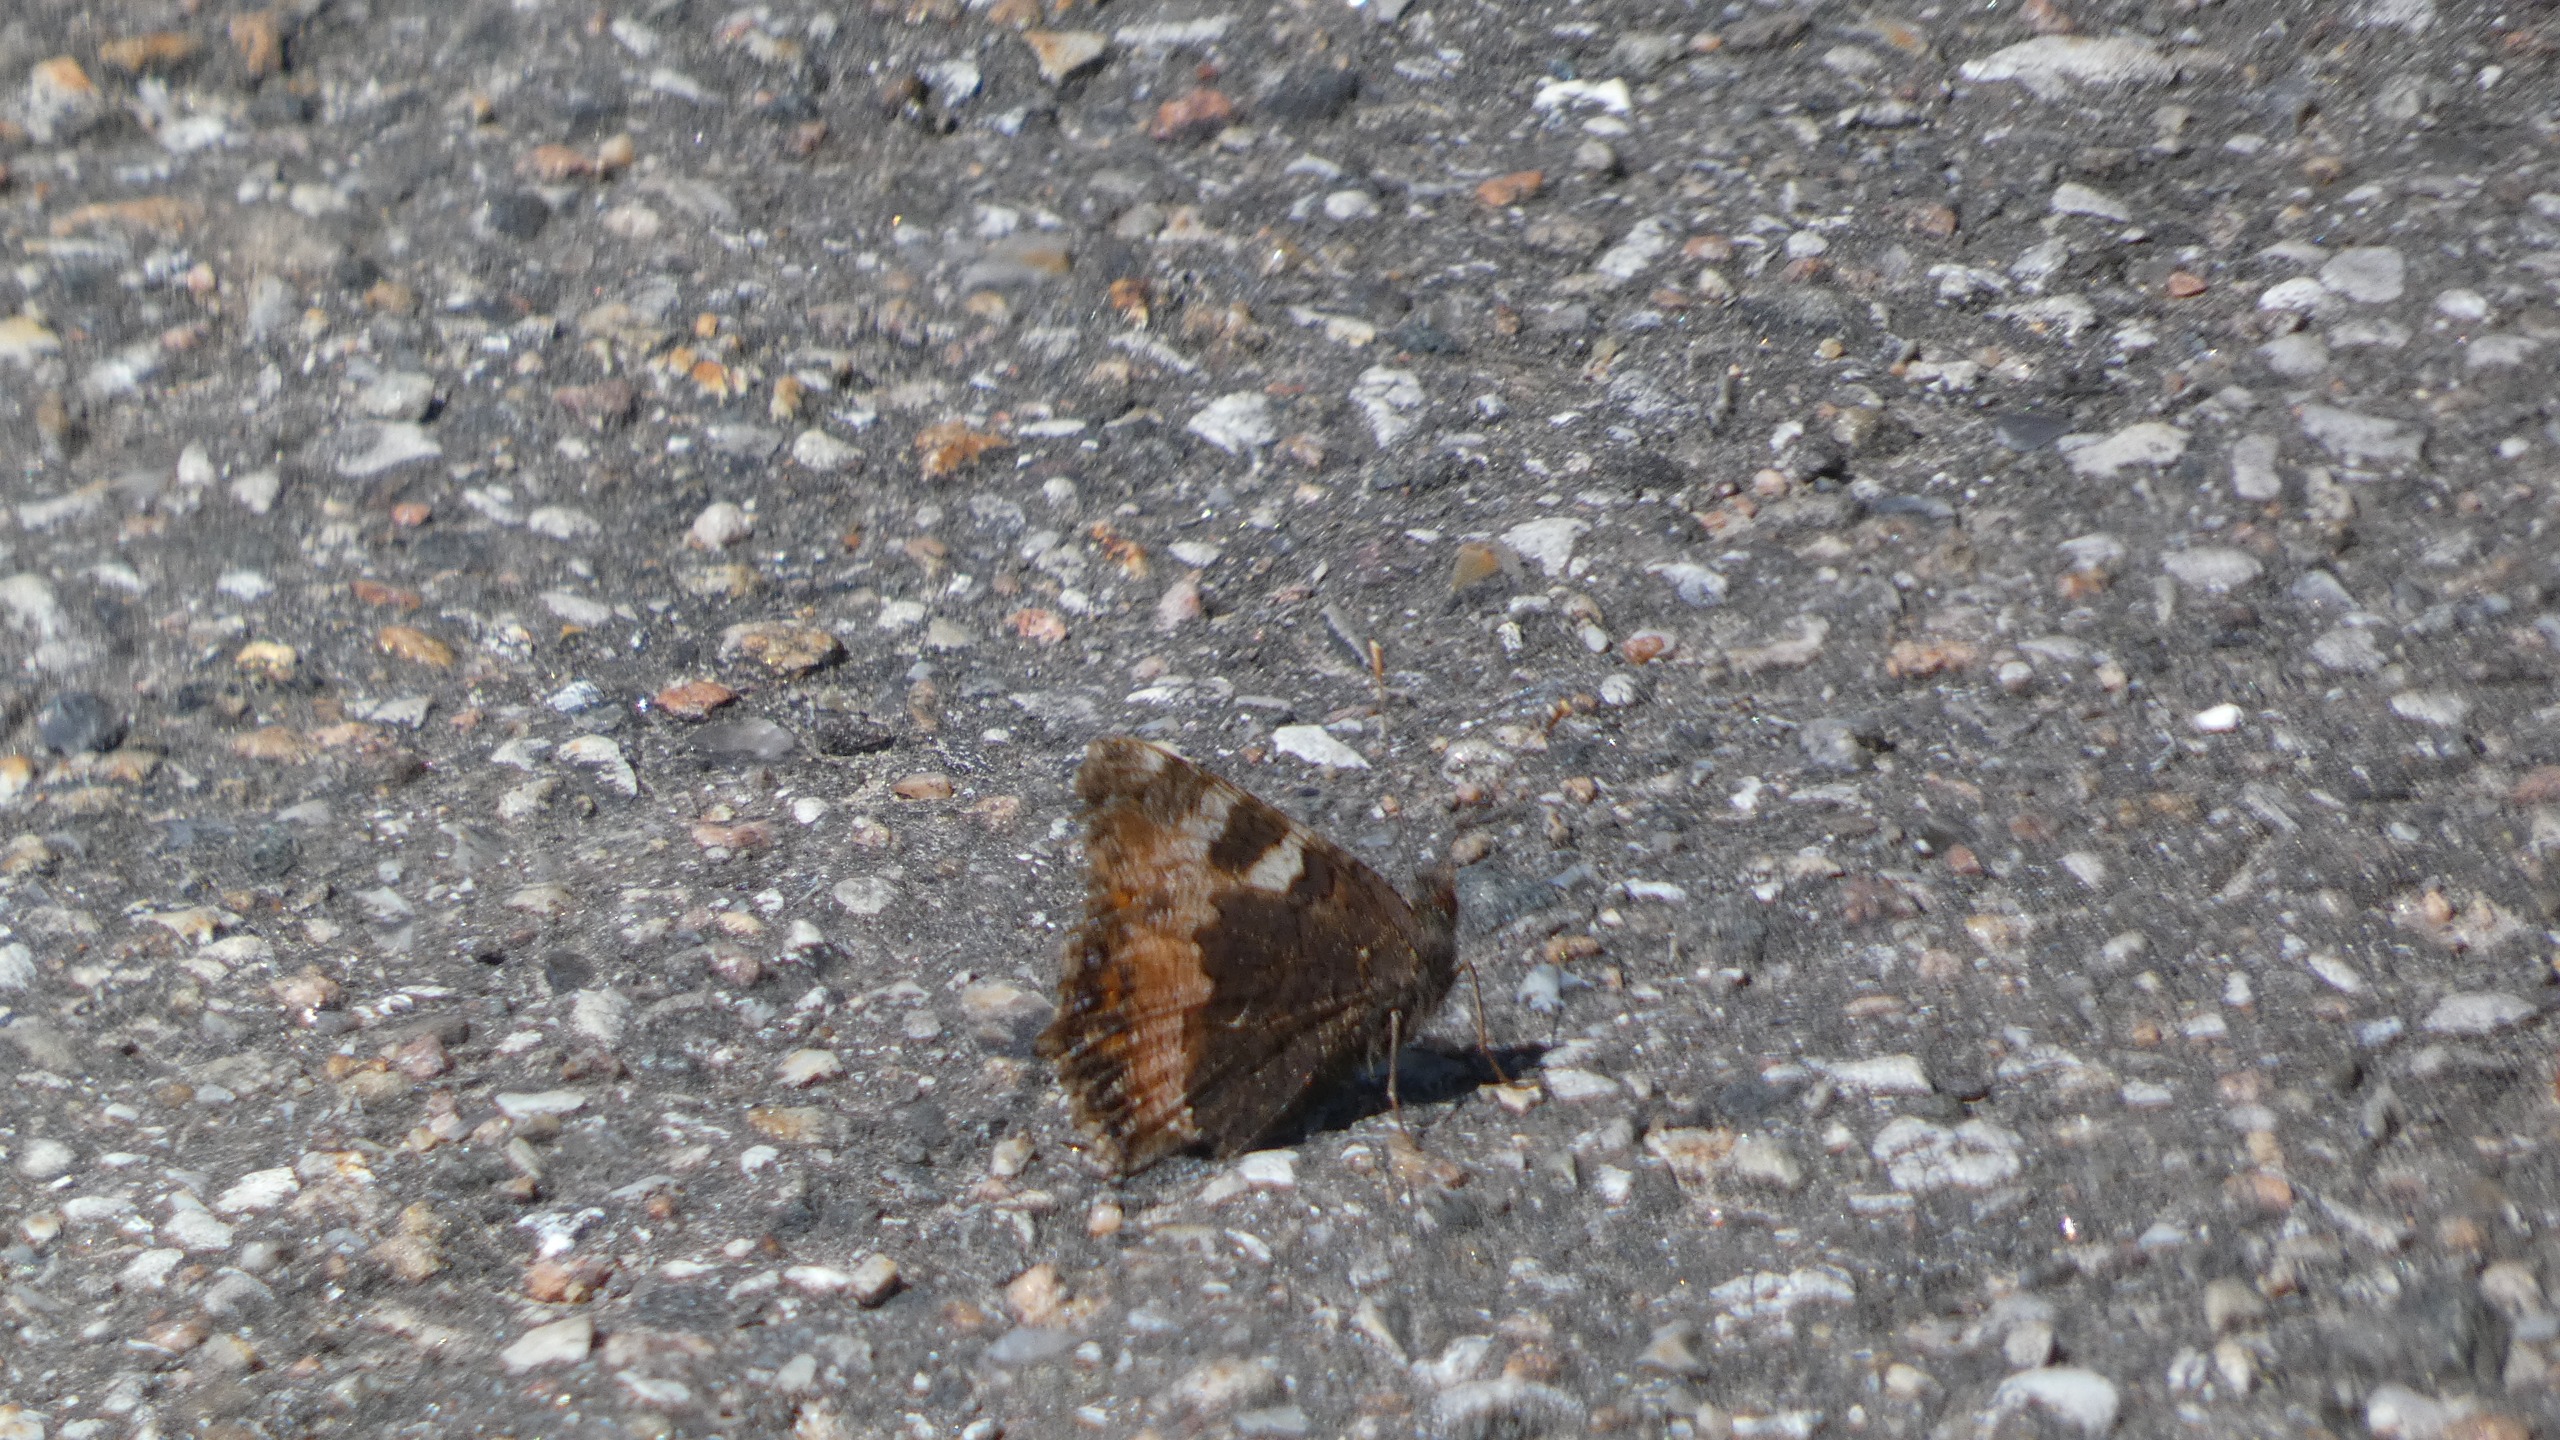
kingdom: Animalia
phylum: Arthropoda
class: Insecta
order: Lepidoptera
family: Nymphalidae
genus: Aglais
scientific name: Aglais urticae
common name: Nældens takvinge
